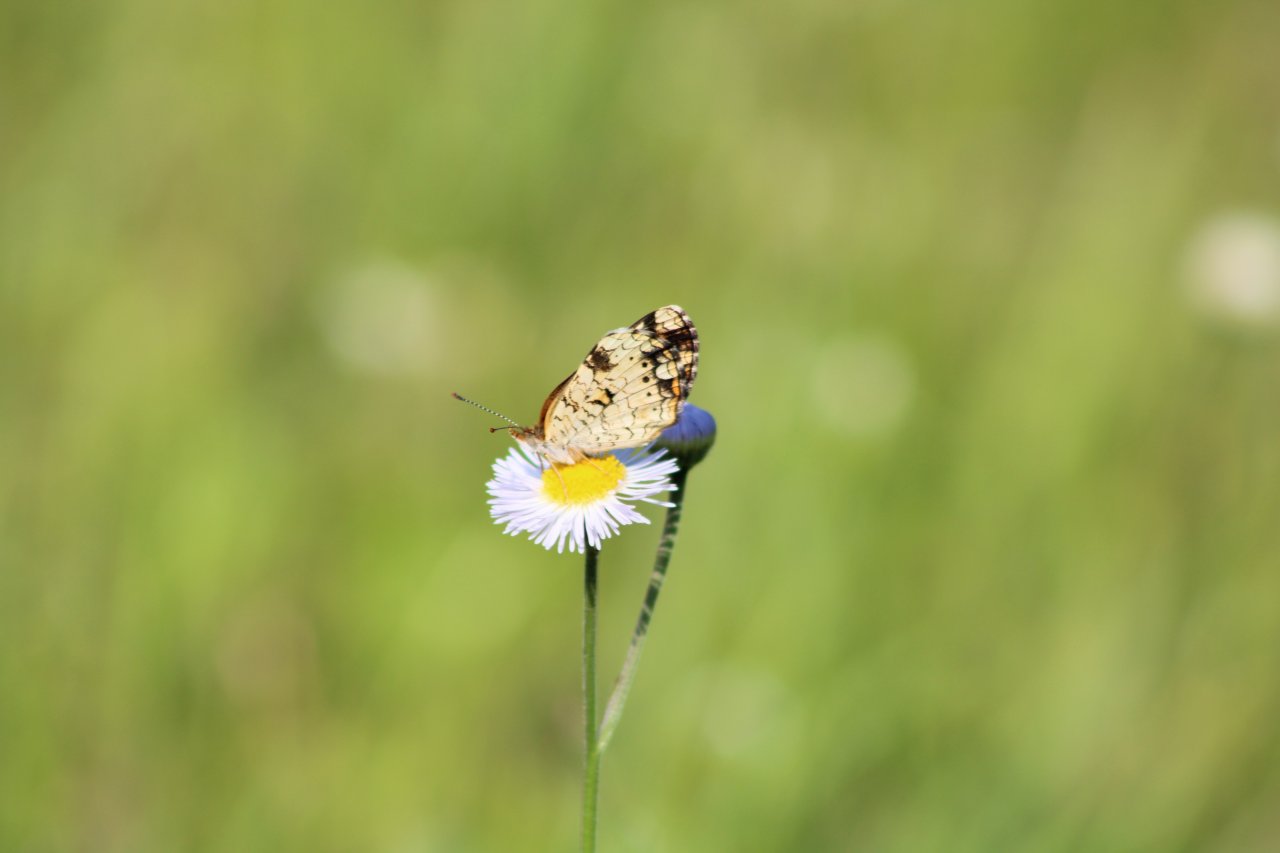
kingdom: Animalia
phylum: Arthropoda
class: Insecta
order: Lepidoptera
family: Nymphalidae
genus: Phyciodes
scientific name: Phyciodes phaon
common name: Phaon Crescent
